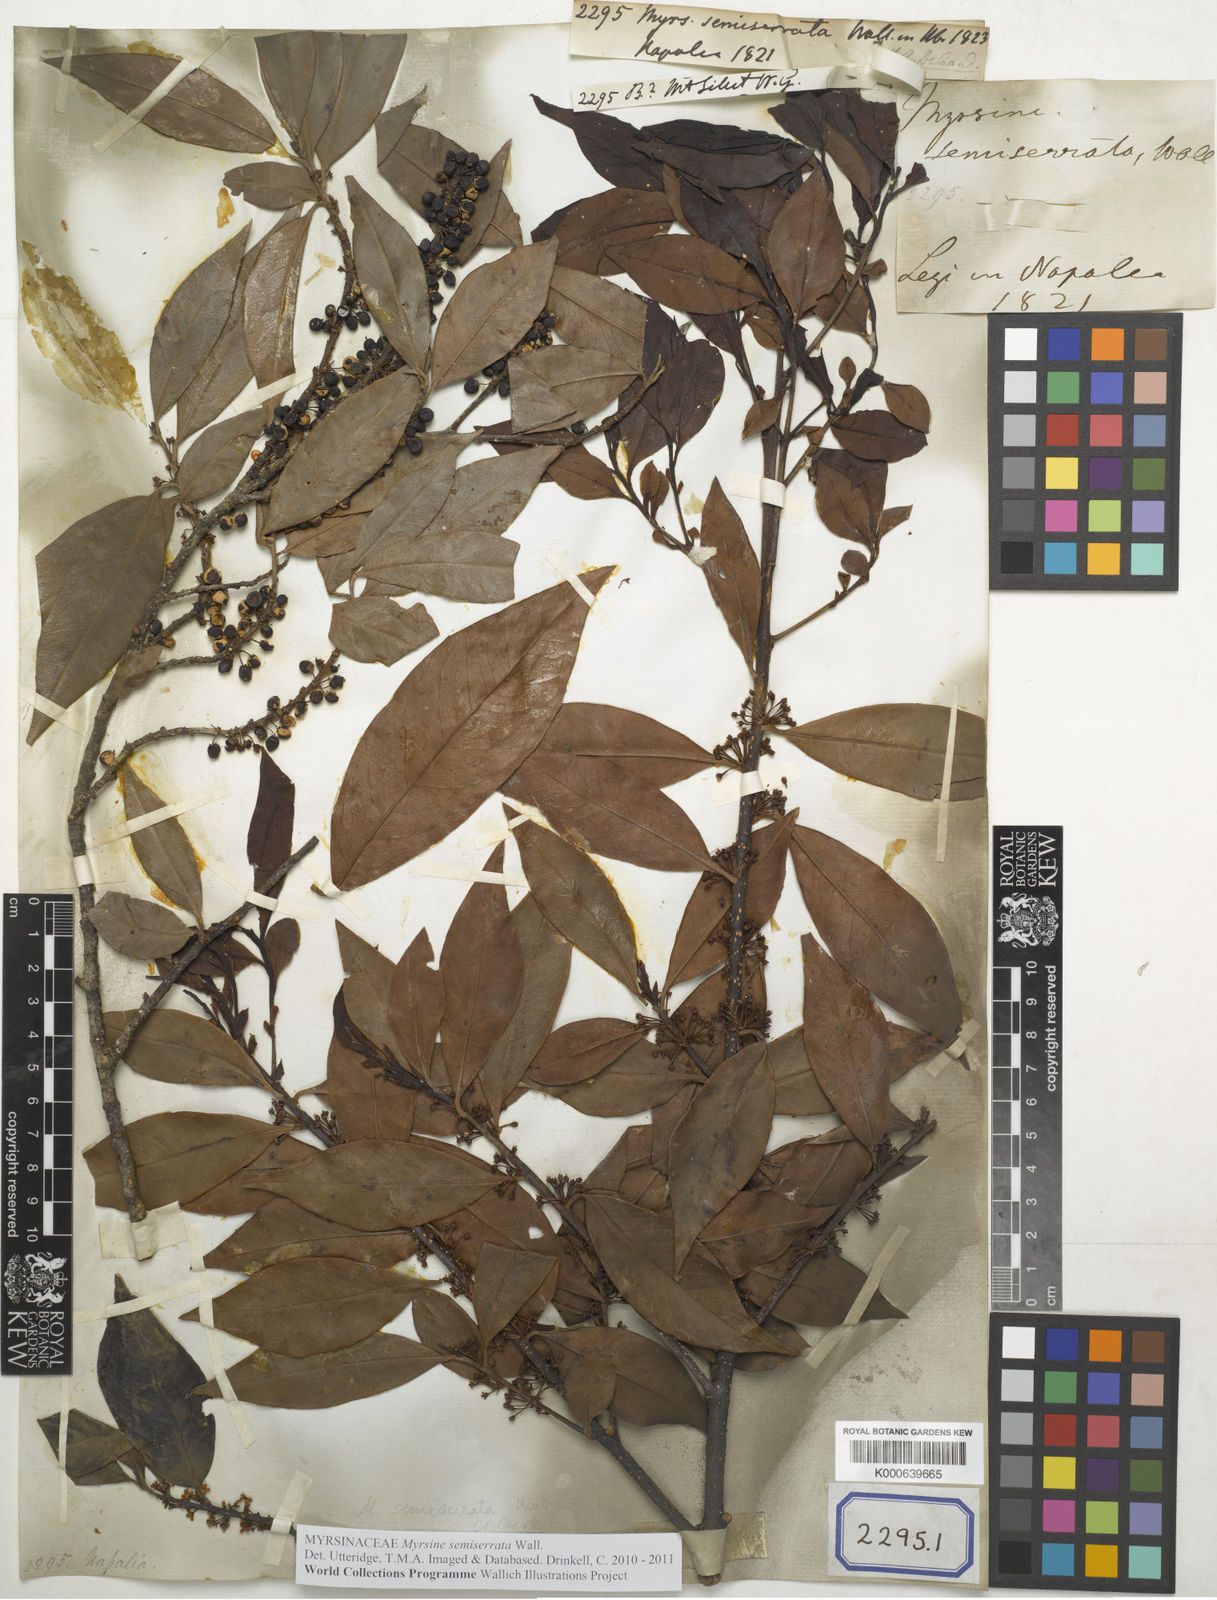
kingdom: Plantae
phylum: Tracheophyta
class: Magnoliopsida
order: Ericales
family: Primulaceae
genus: Myrsine
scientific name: Myrsine semiserrata
